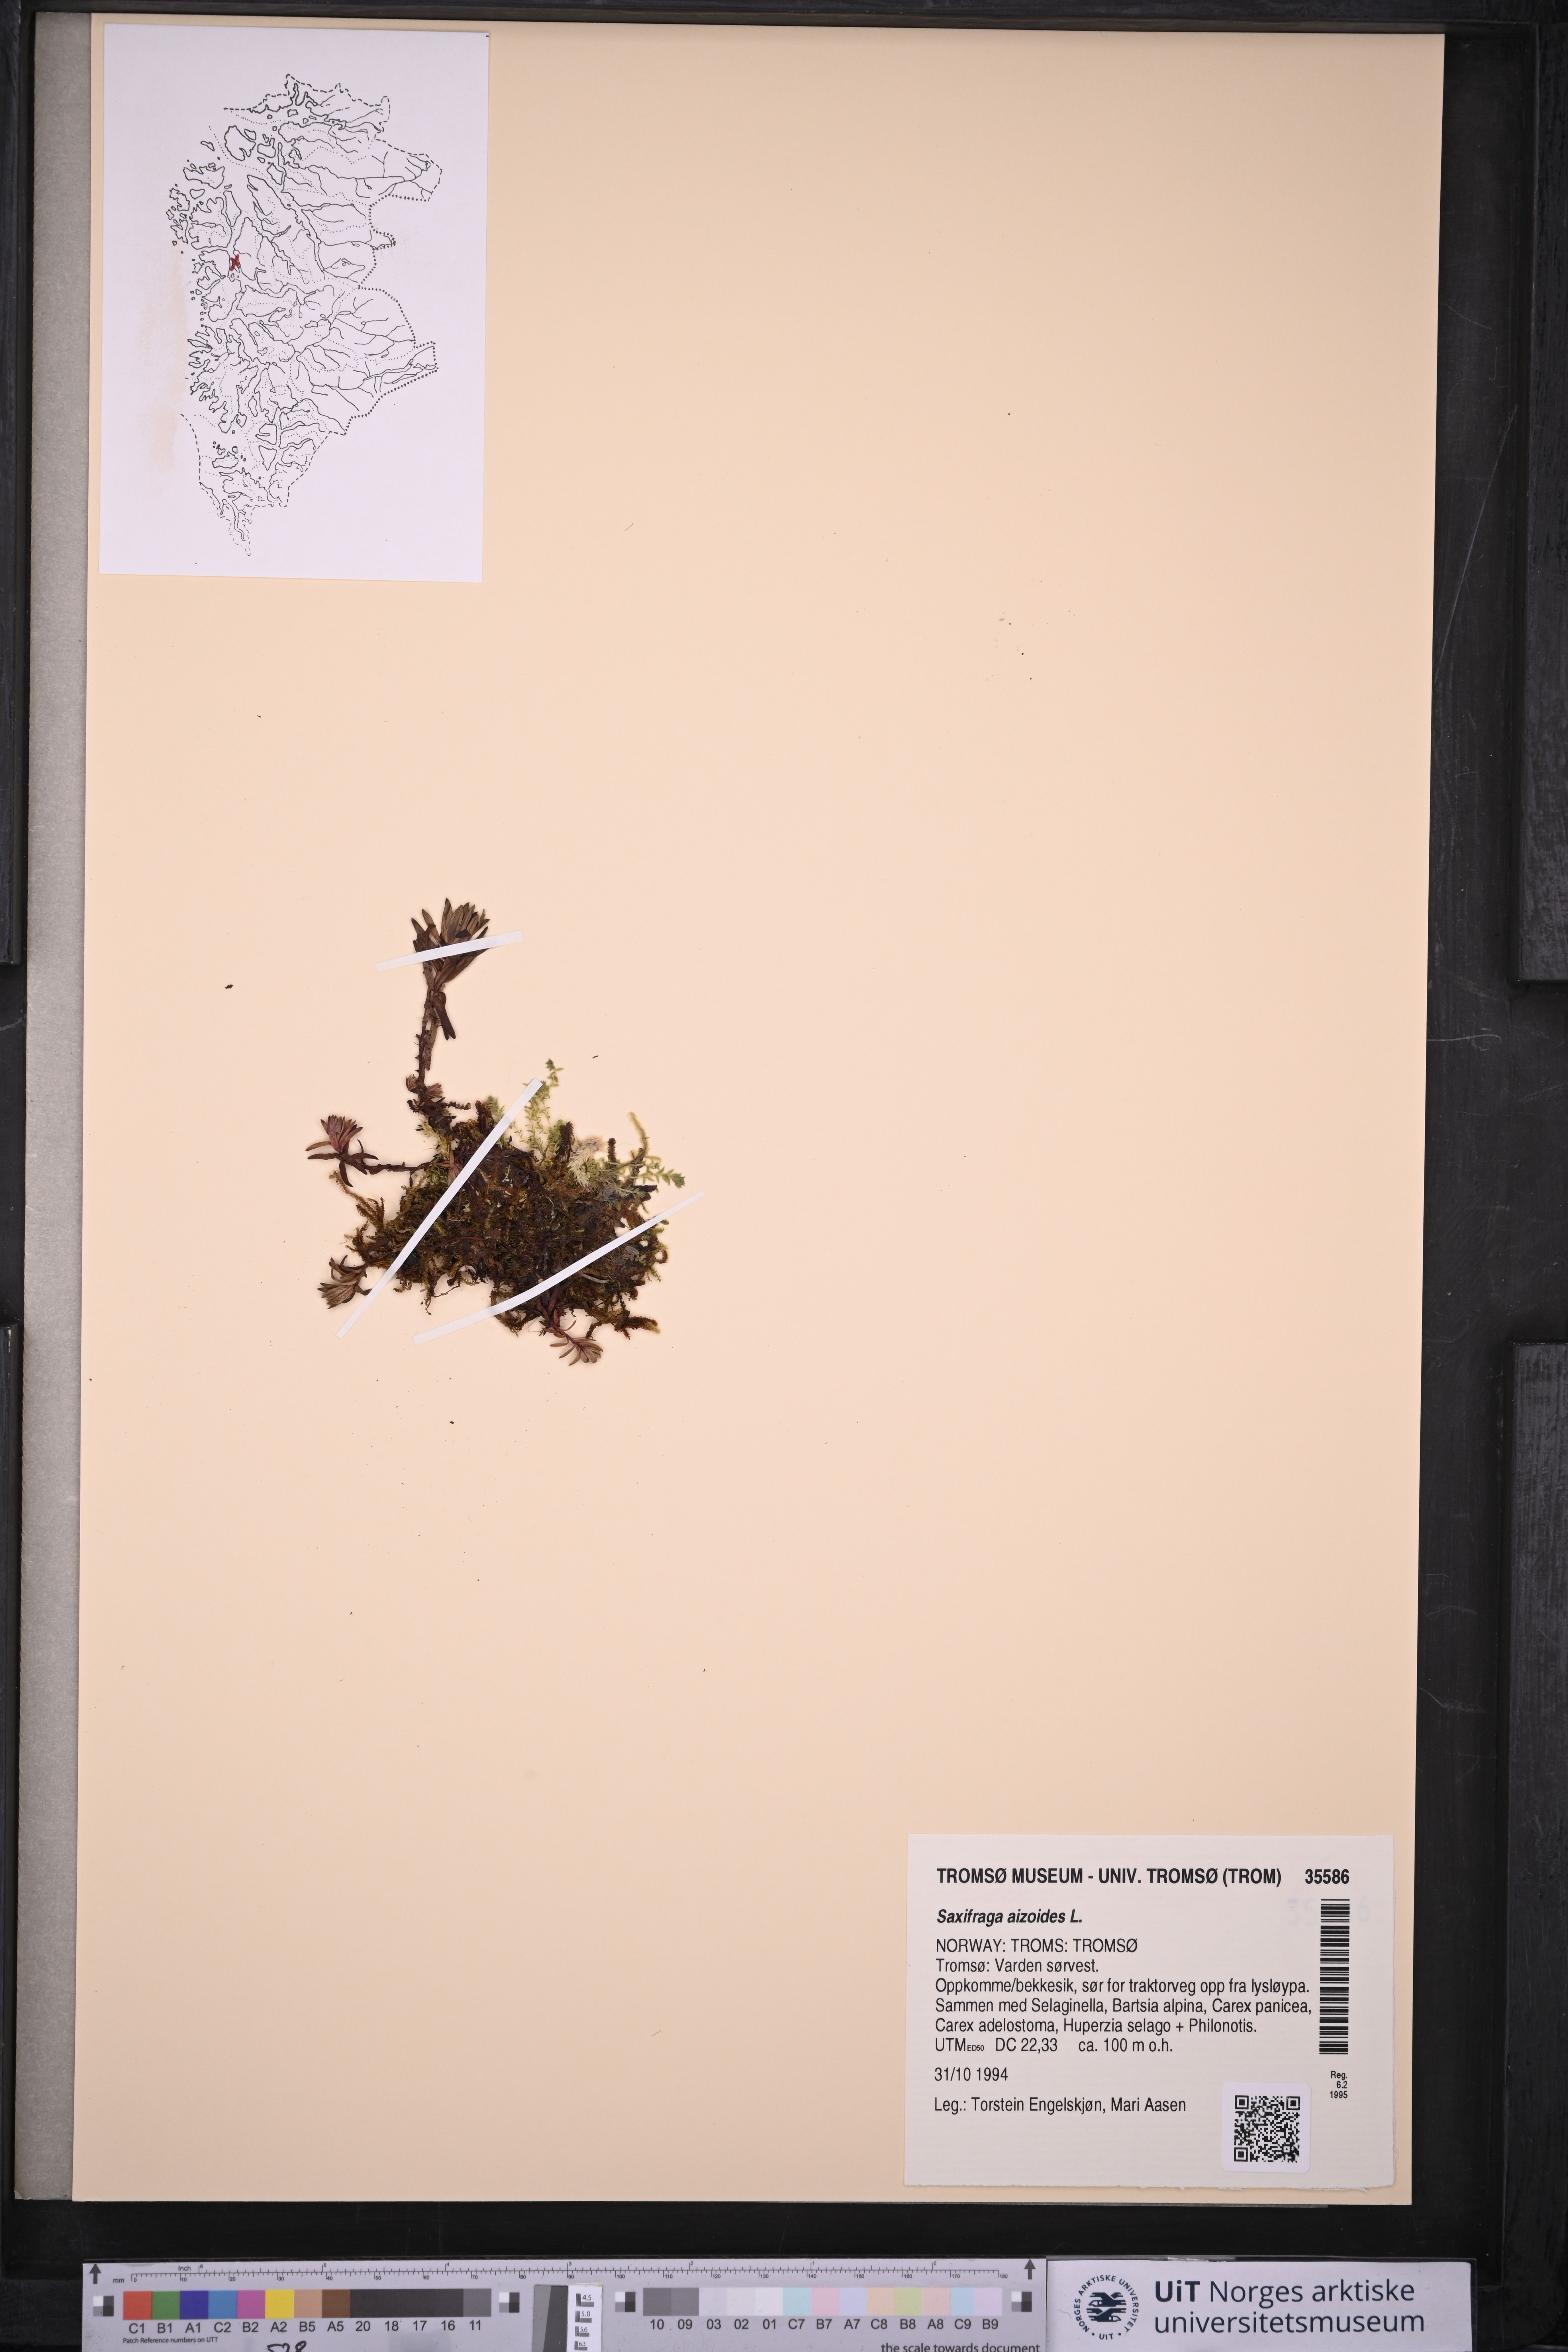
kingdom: Plantae
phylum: Tracheophyta
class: Magnoliopsida
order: Saxifragales
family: Saxifragaceae
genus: Saxifraga
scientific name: Saxifraga aizoides
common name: Yellow mountain saxifrage
